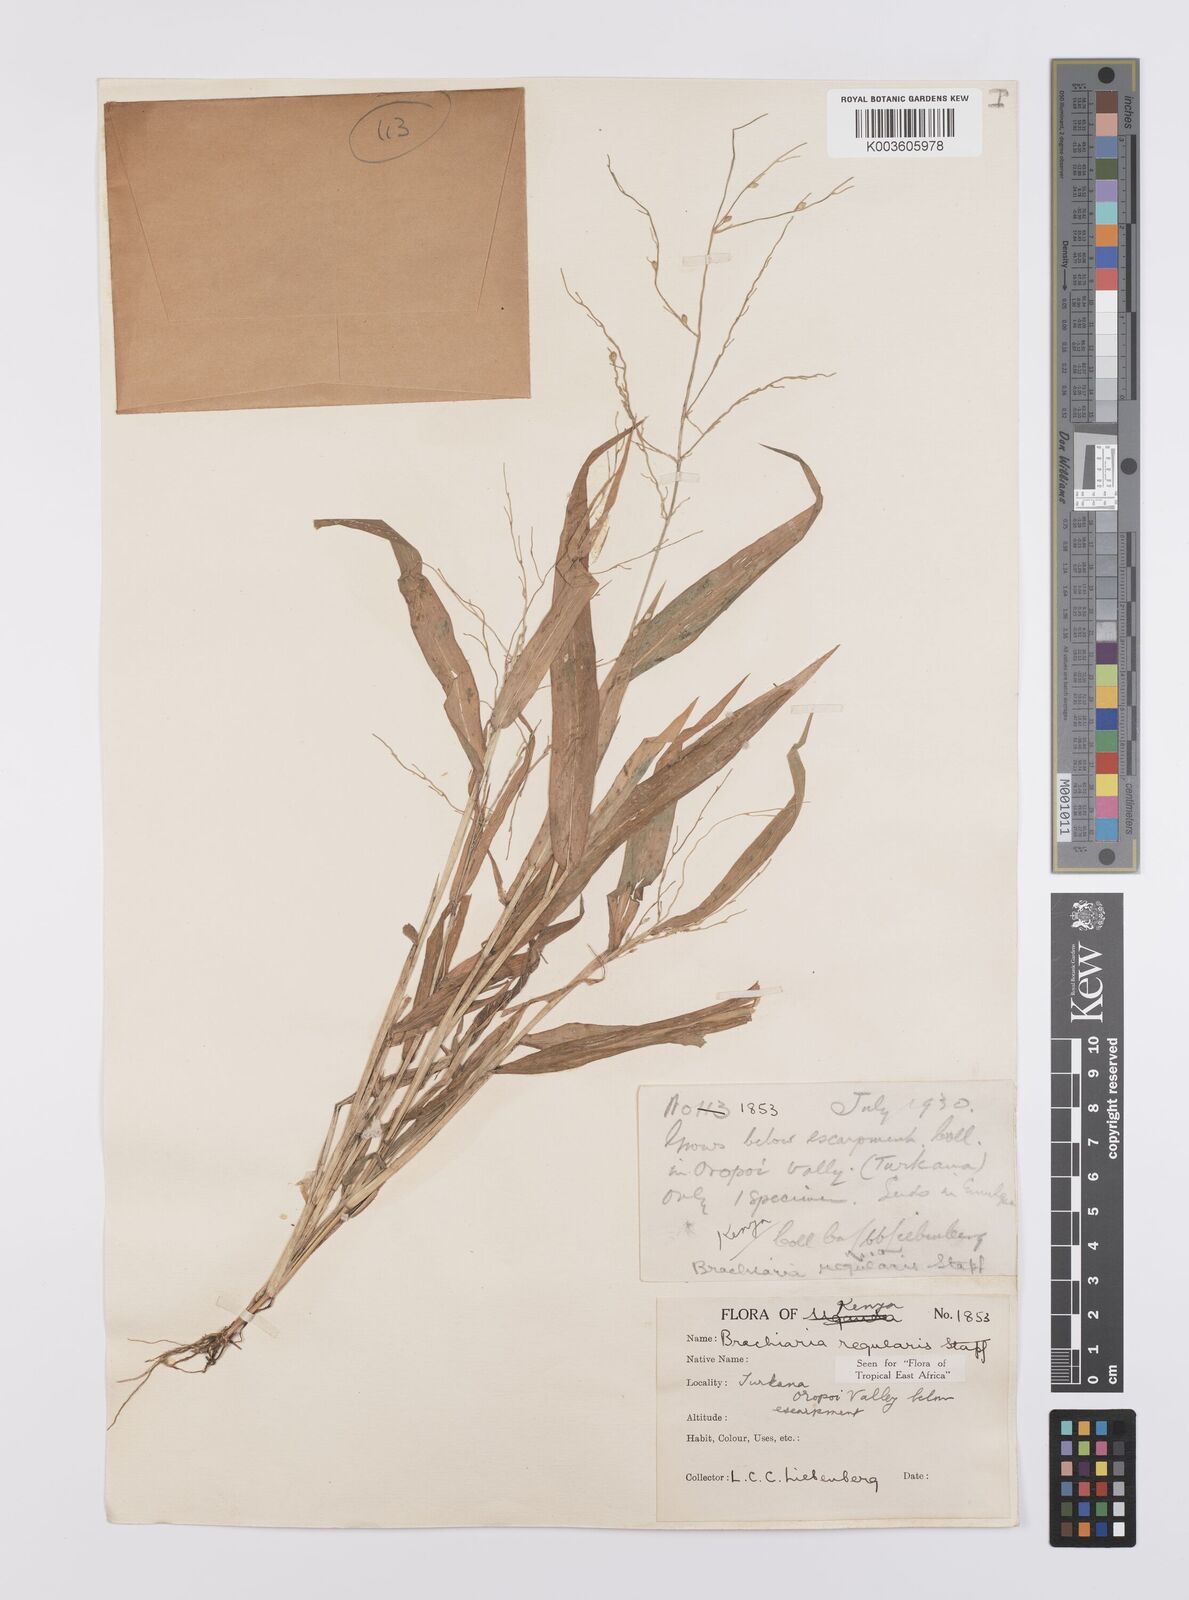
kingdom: Plantae
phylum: Tracheophyta
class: Liliopsida
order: Poales
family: Poaceae
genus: Urochloa
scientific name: Urochloa deflexa
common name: Guinea millet
